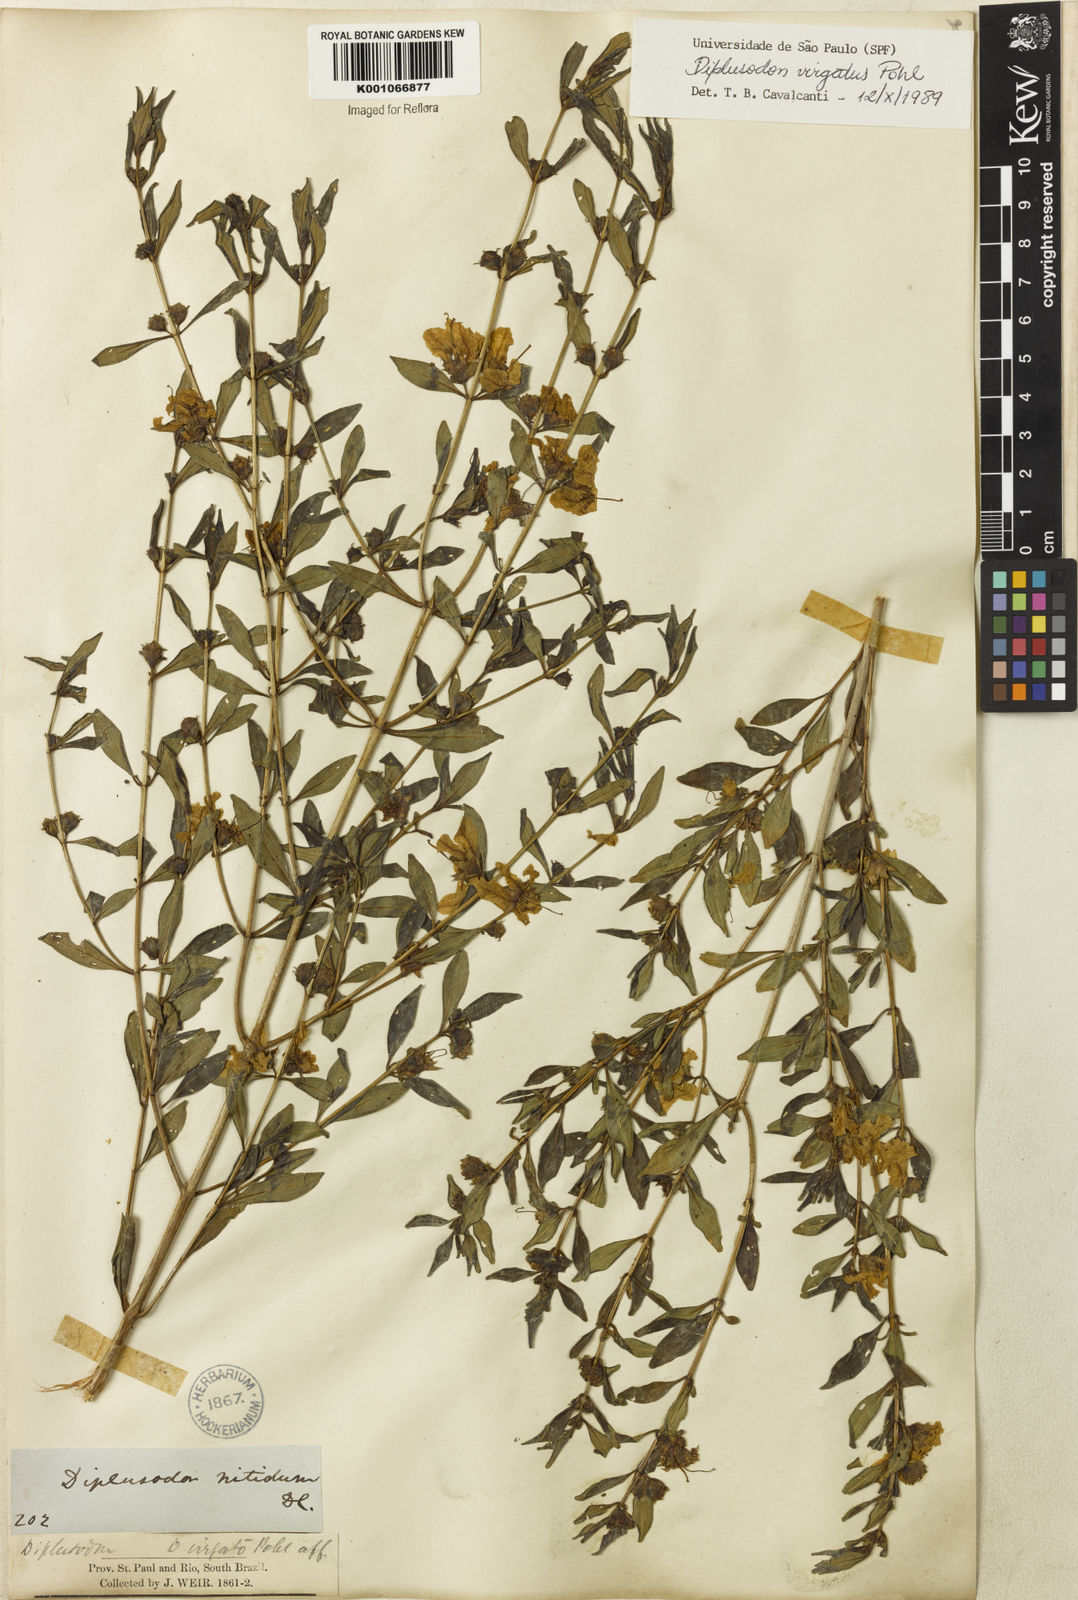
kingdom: Plantae
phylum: Tracheophyta
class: Magnoliopsida
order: Myrtales
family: Lythraceae
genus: Diplusodon
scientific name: Diplusodon virgatus
